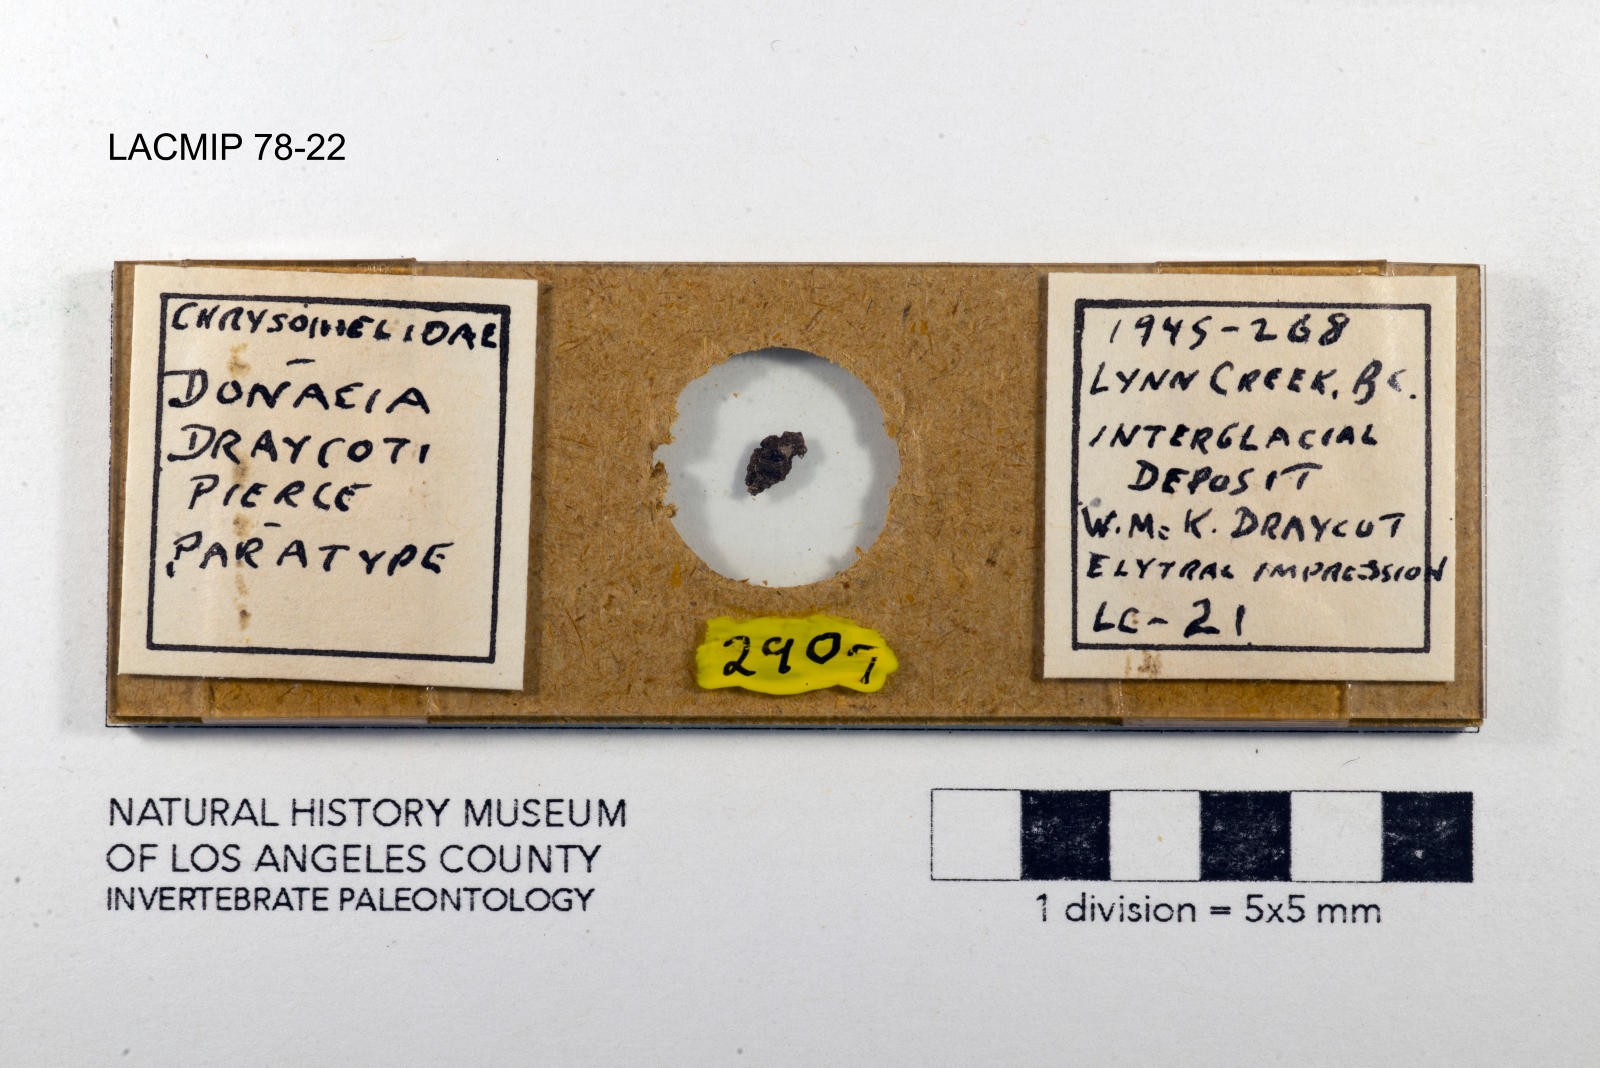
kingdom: Animalia
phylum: Arthropoda
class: Insecta
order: Coleoptera
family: Chrysomelidae
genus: Donacia
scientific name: Donacia draycoti
